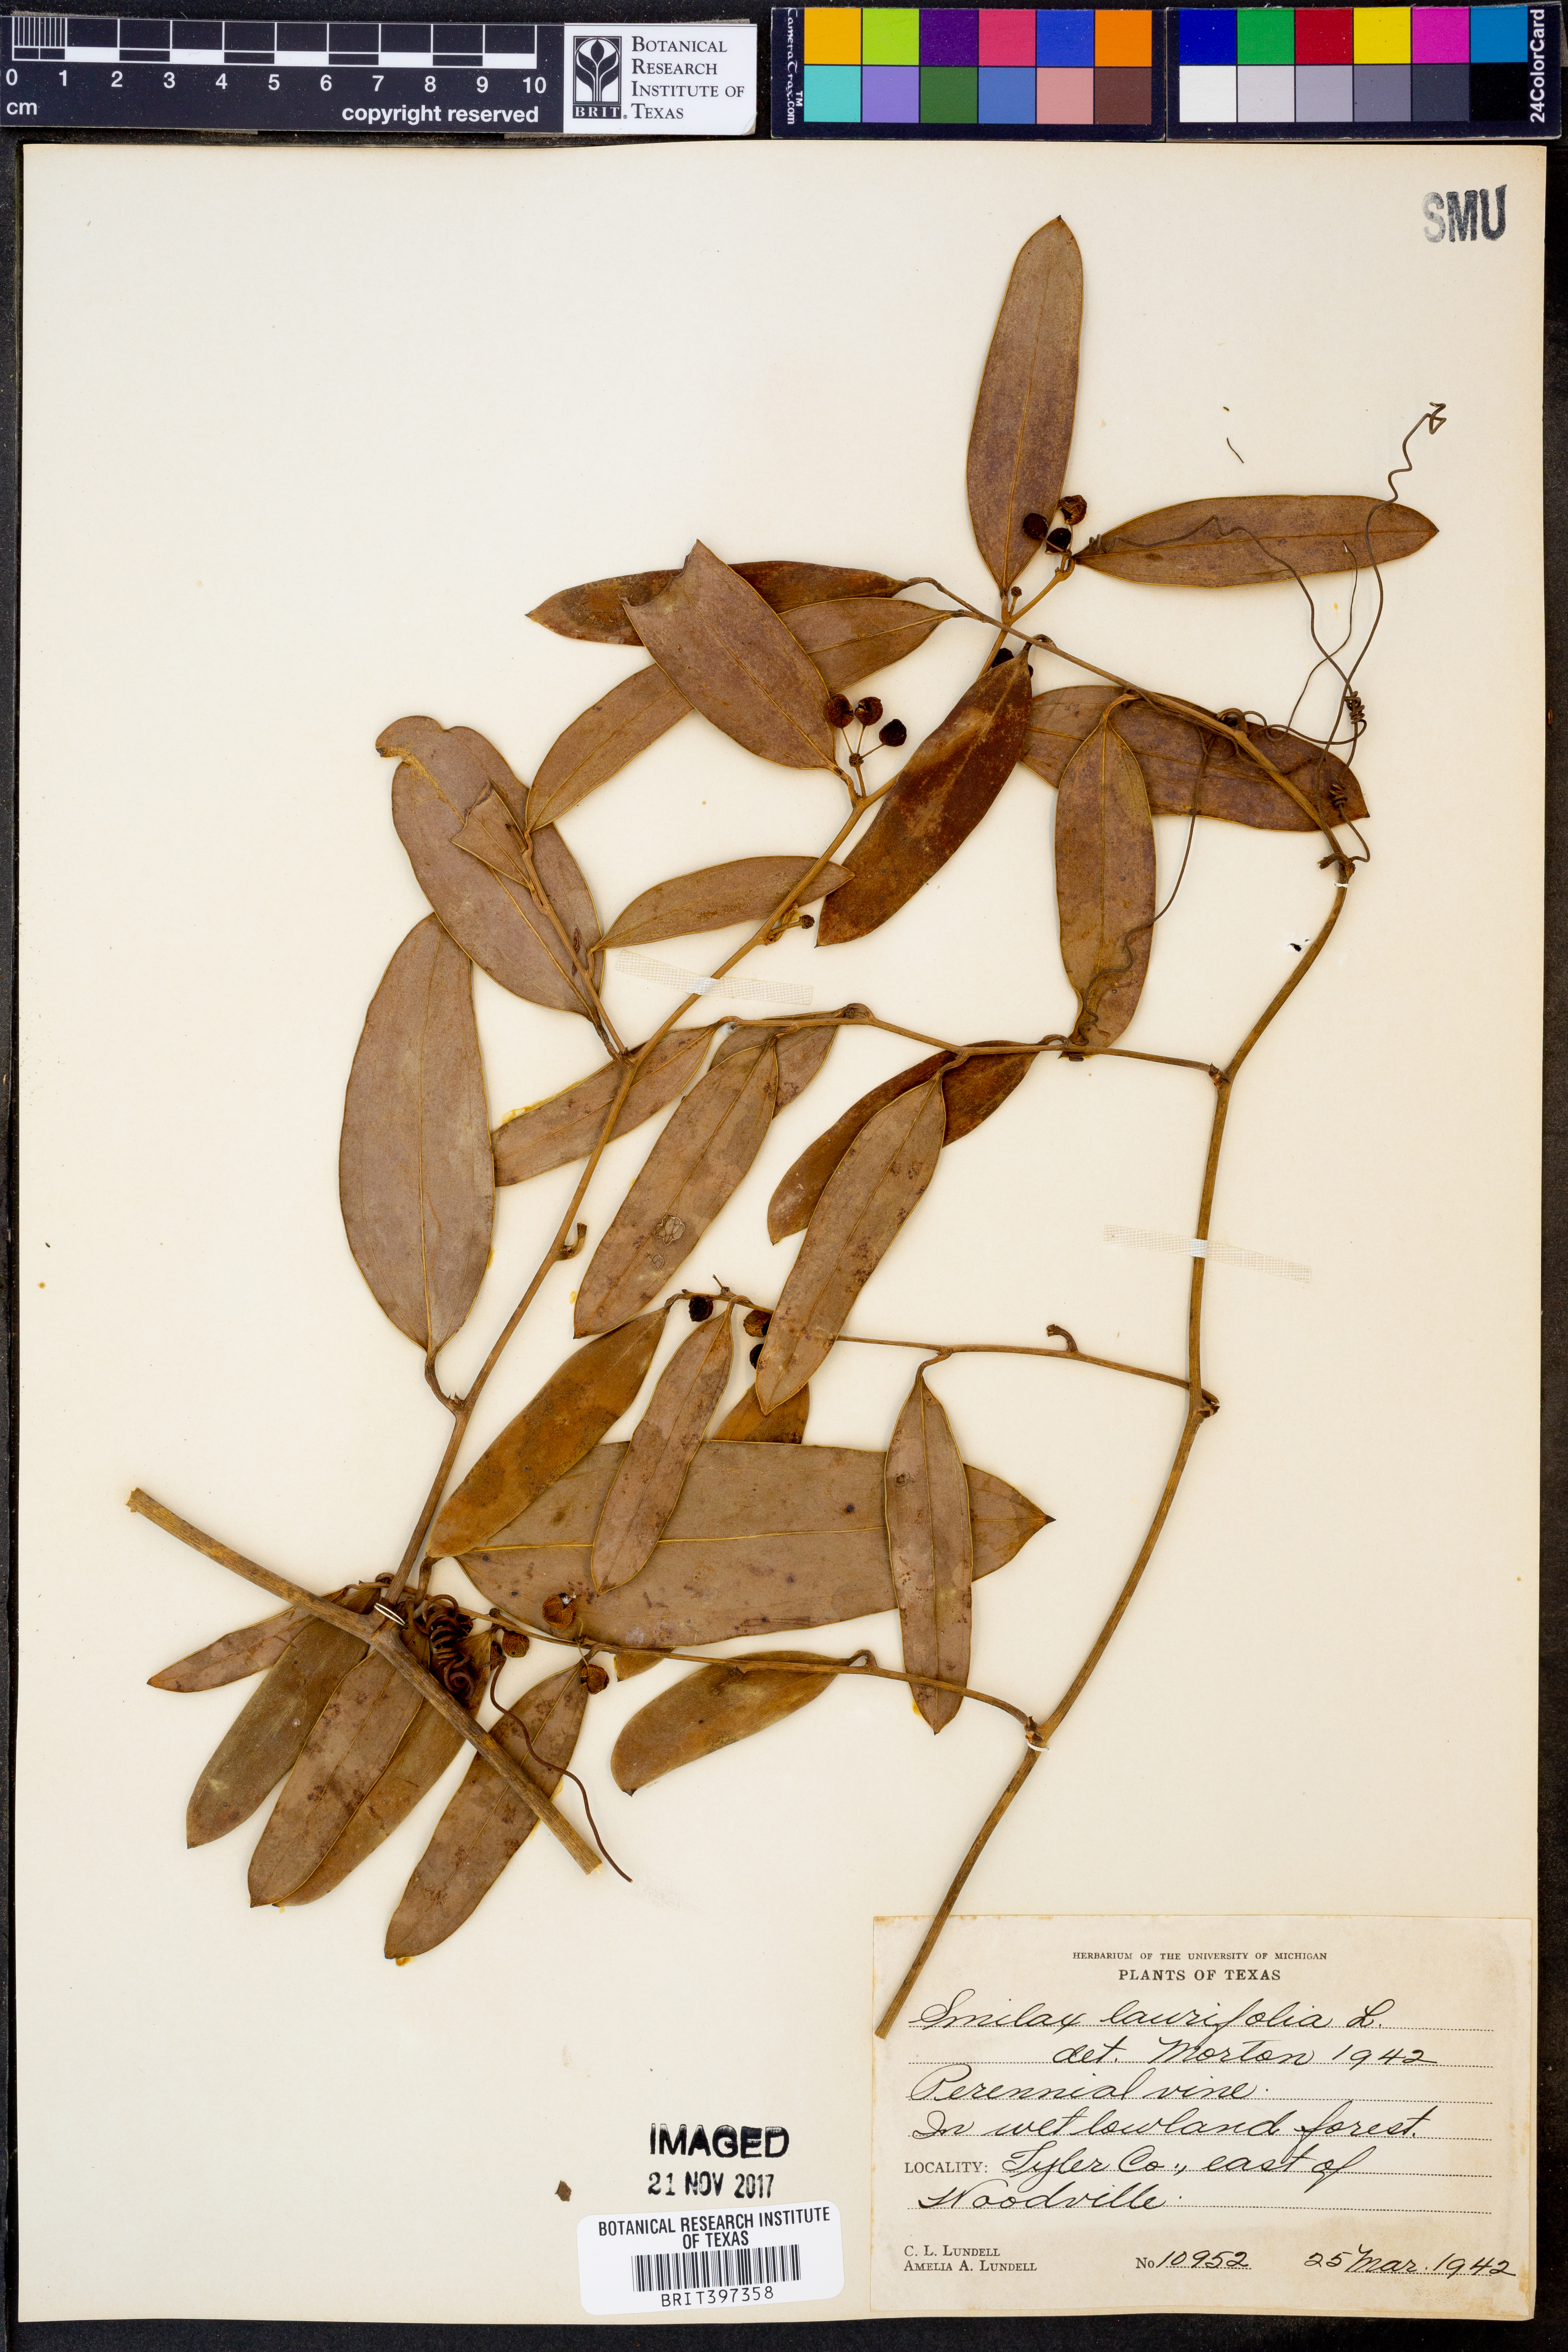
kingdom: Plantae
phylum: Tracheophyta
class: Liliopsida
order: Liliales
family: Smilacaceae
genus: Smilax
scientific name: Smilax laurifolia
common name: Bamboovine
